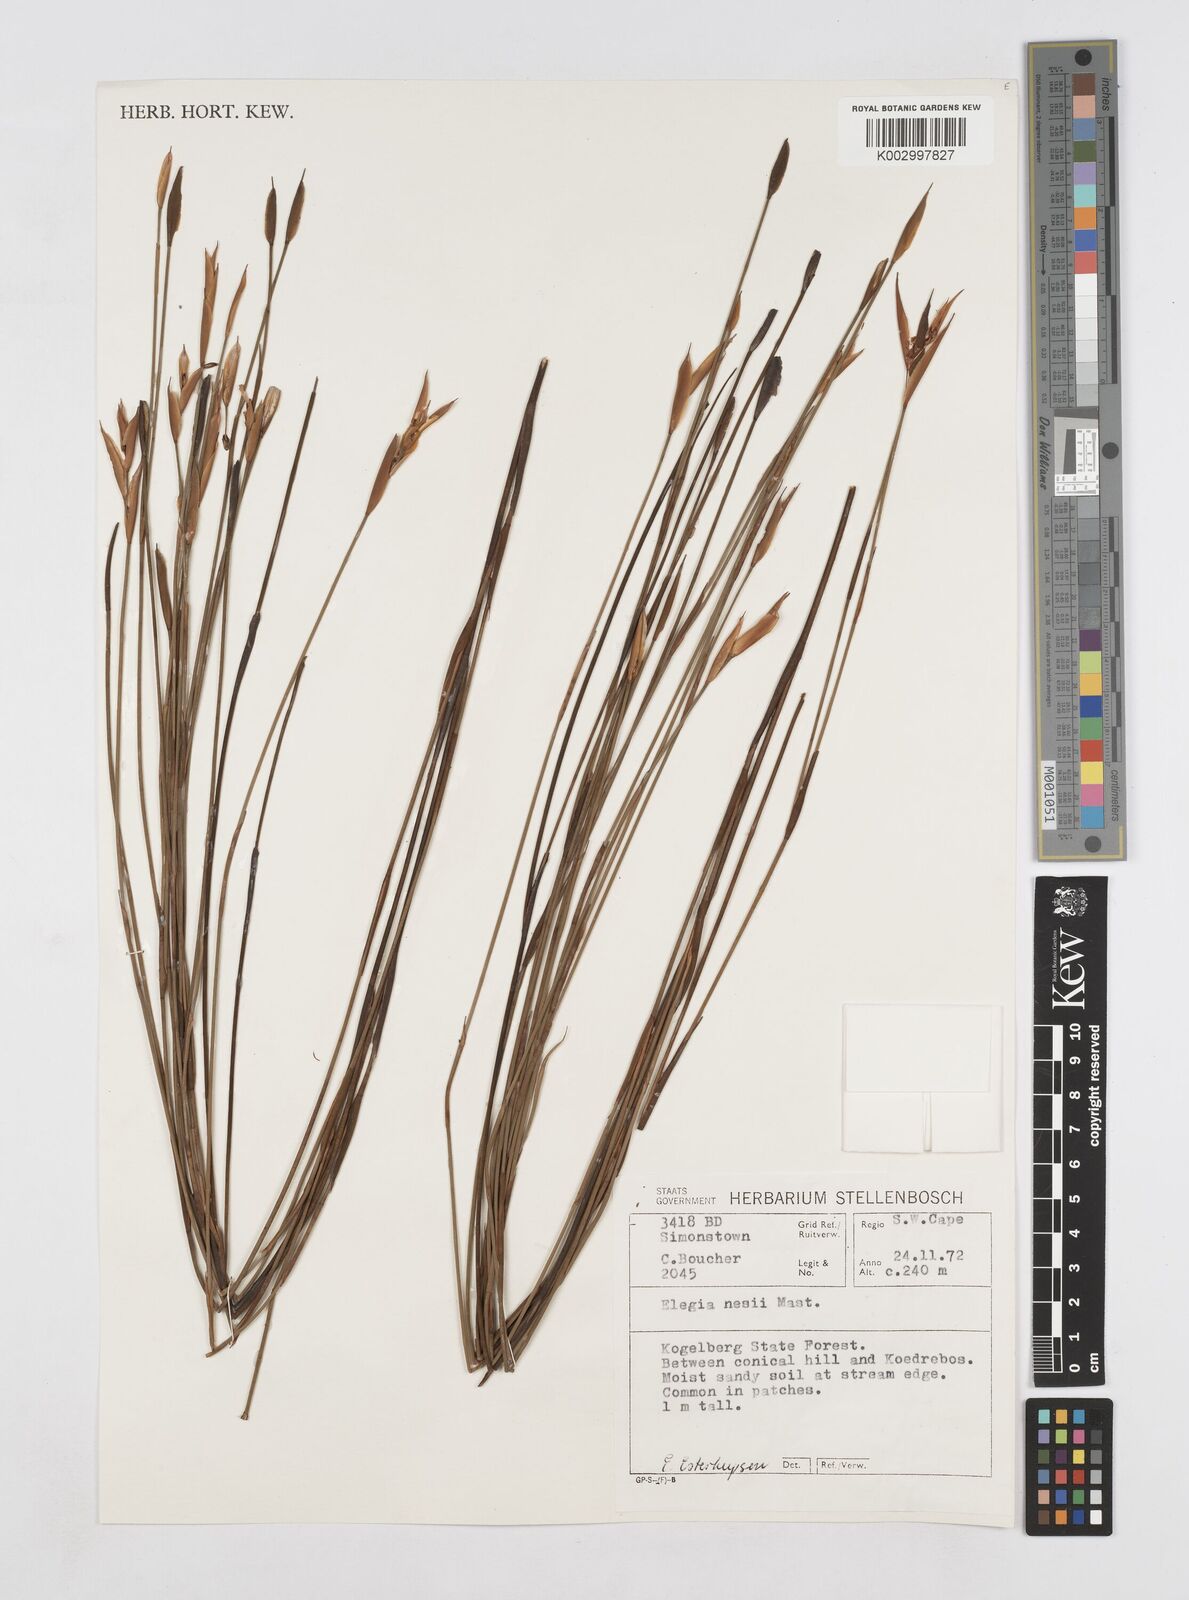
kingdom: Plantae
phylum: Tracheophyta
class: Liliopsida
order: Poales
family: Restionaceae
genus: Elegia
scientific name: Elegia neesii
